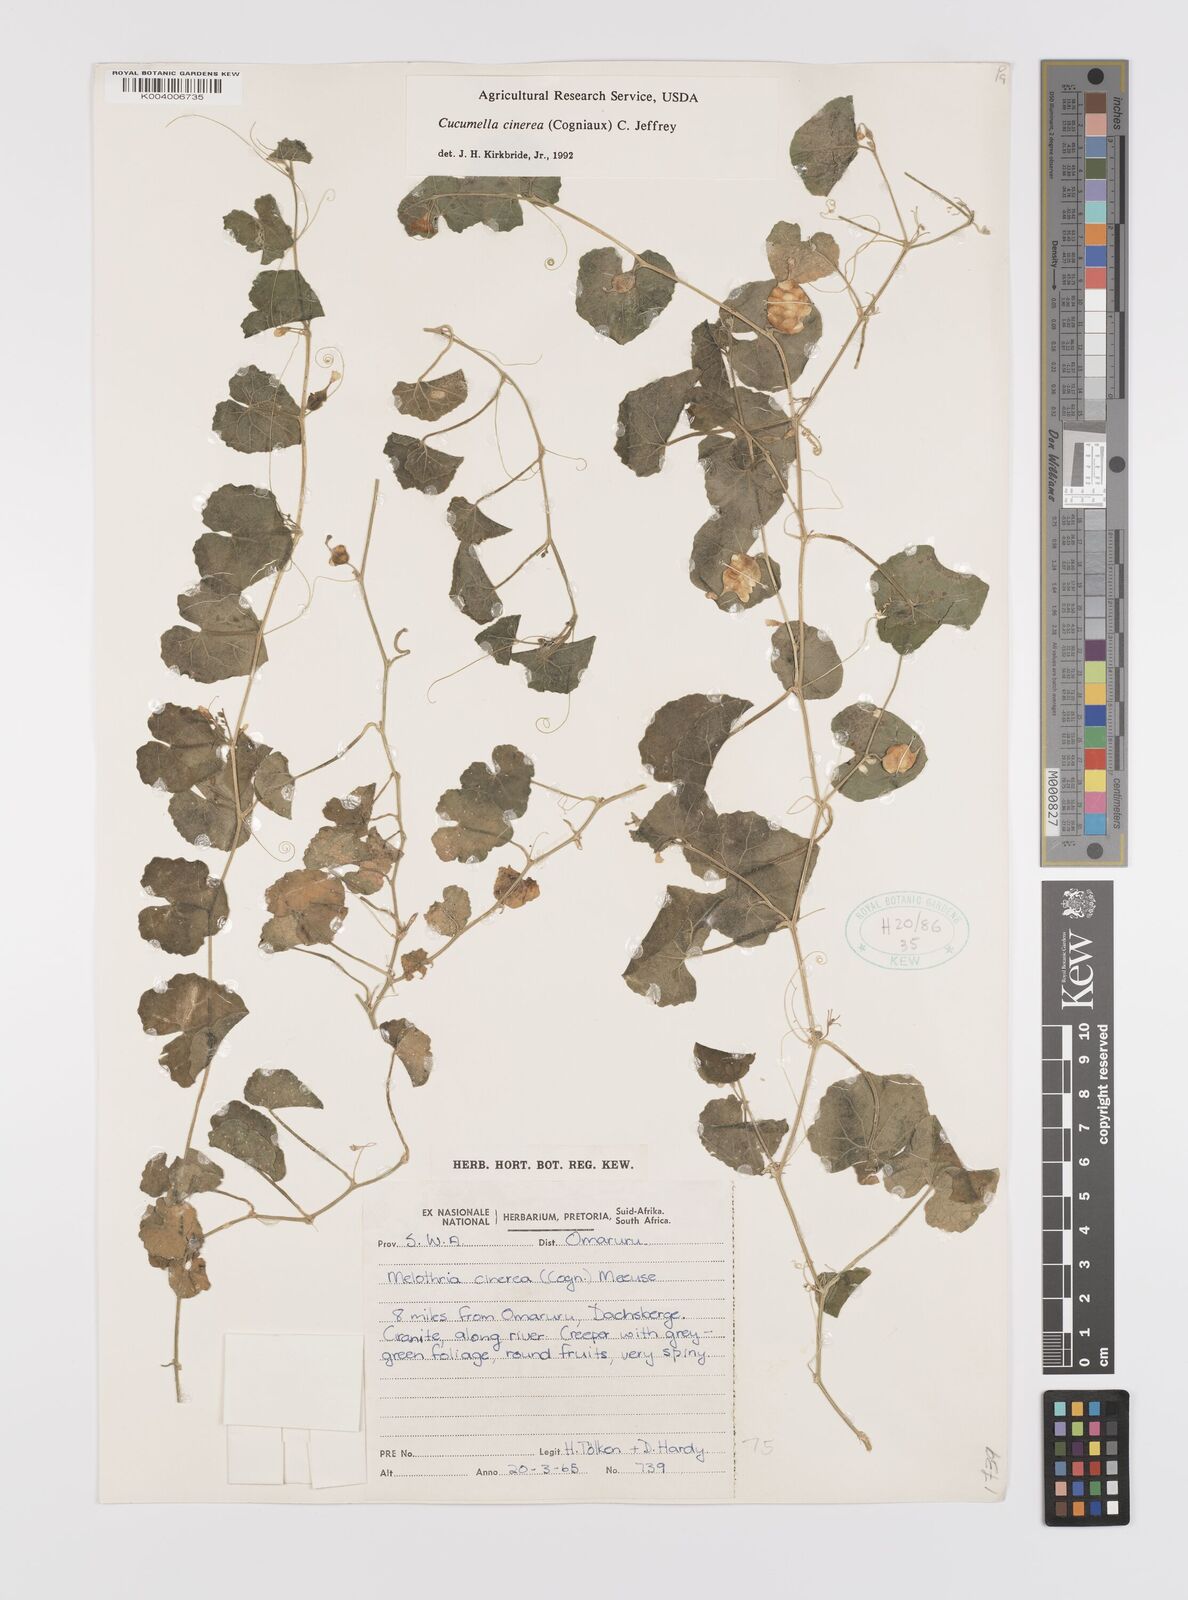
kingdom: Plantae
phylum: Tracheophyta
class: Magnoliopsida
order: Cucurbitales
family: Cucurbitaceae
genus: Cucumis
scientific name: Cucumis cinereus
